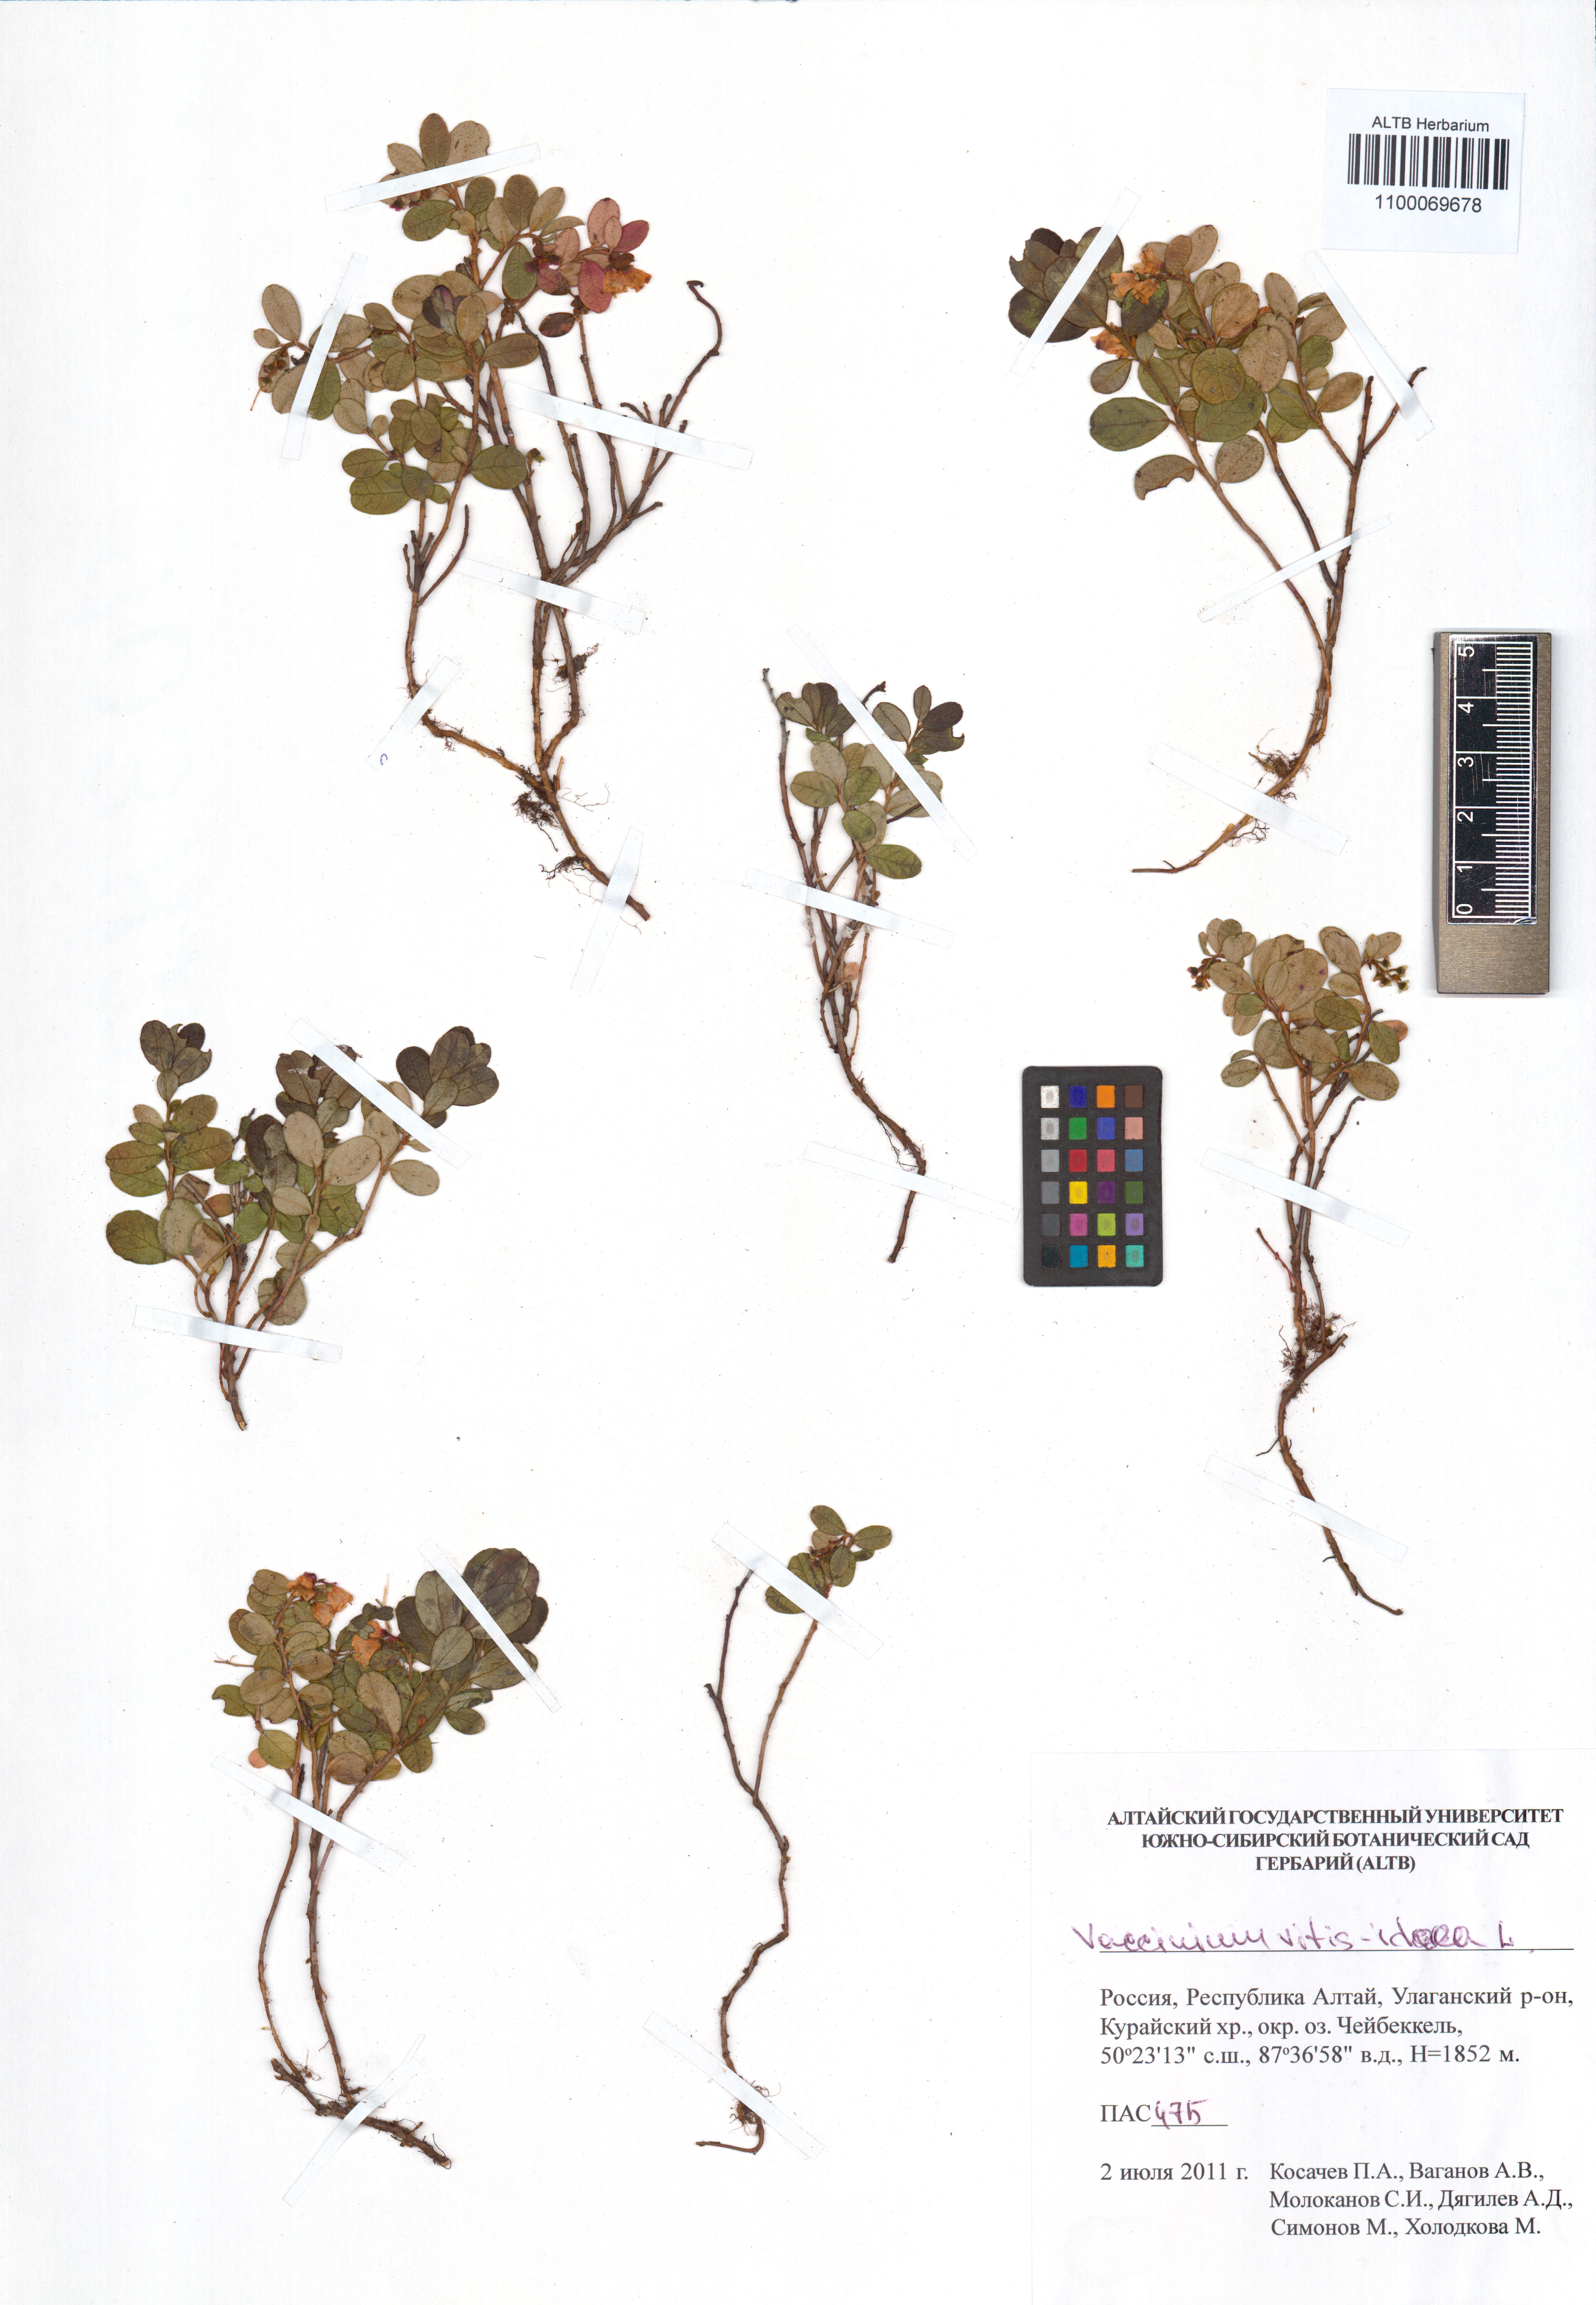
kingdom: Plantae
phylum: Tracheophyta
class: Magnoliopsida
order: Ericales
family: Ericaceae
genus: Vaccinium
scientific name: Vaccinium vitis-idaea
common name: Cowberry
